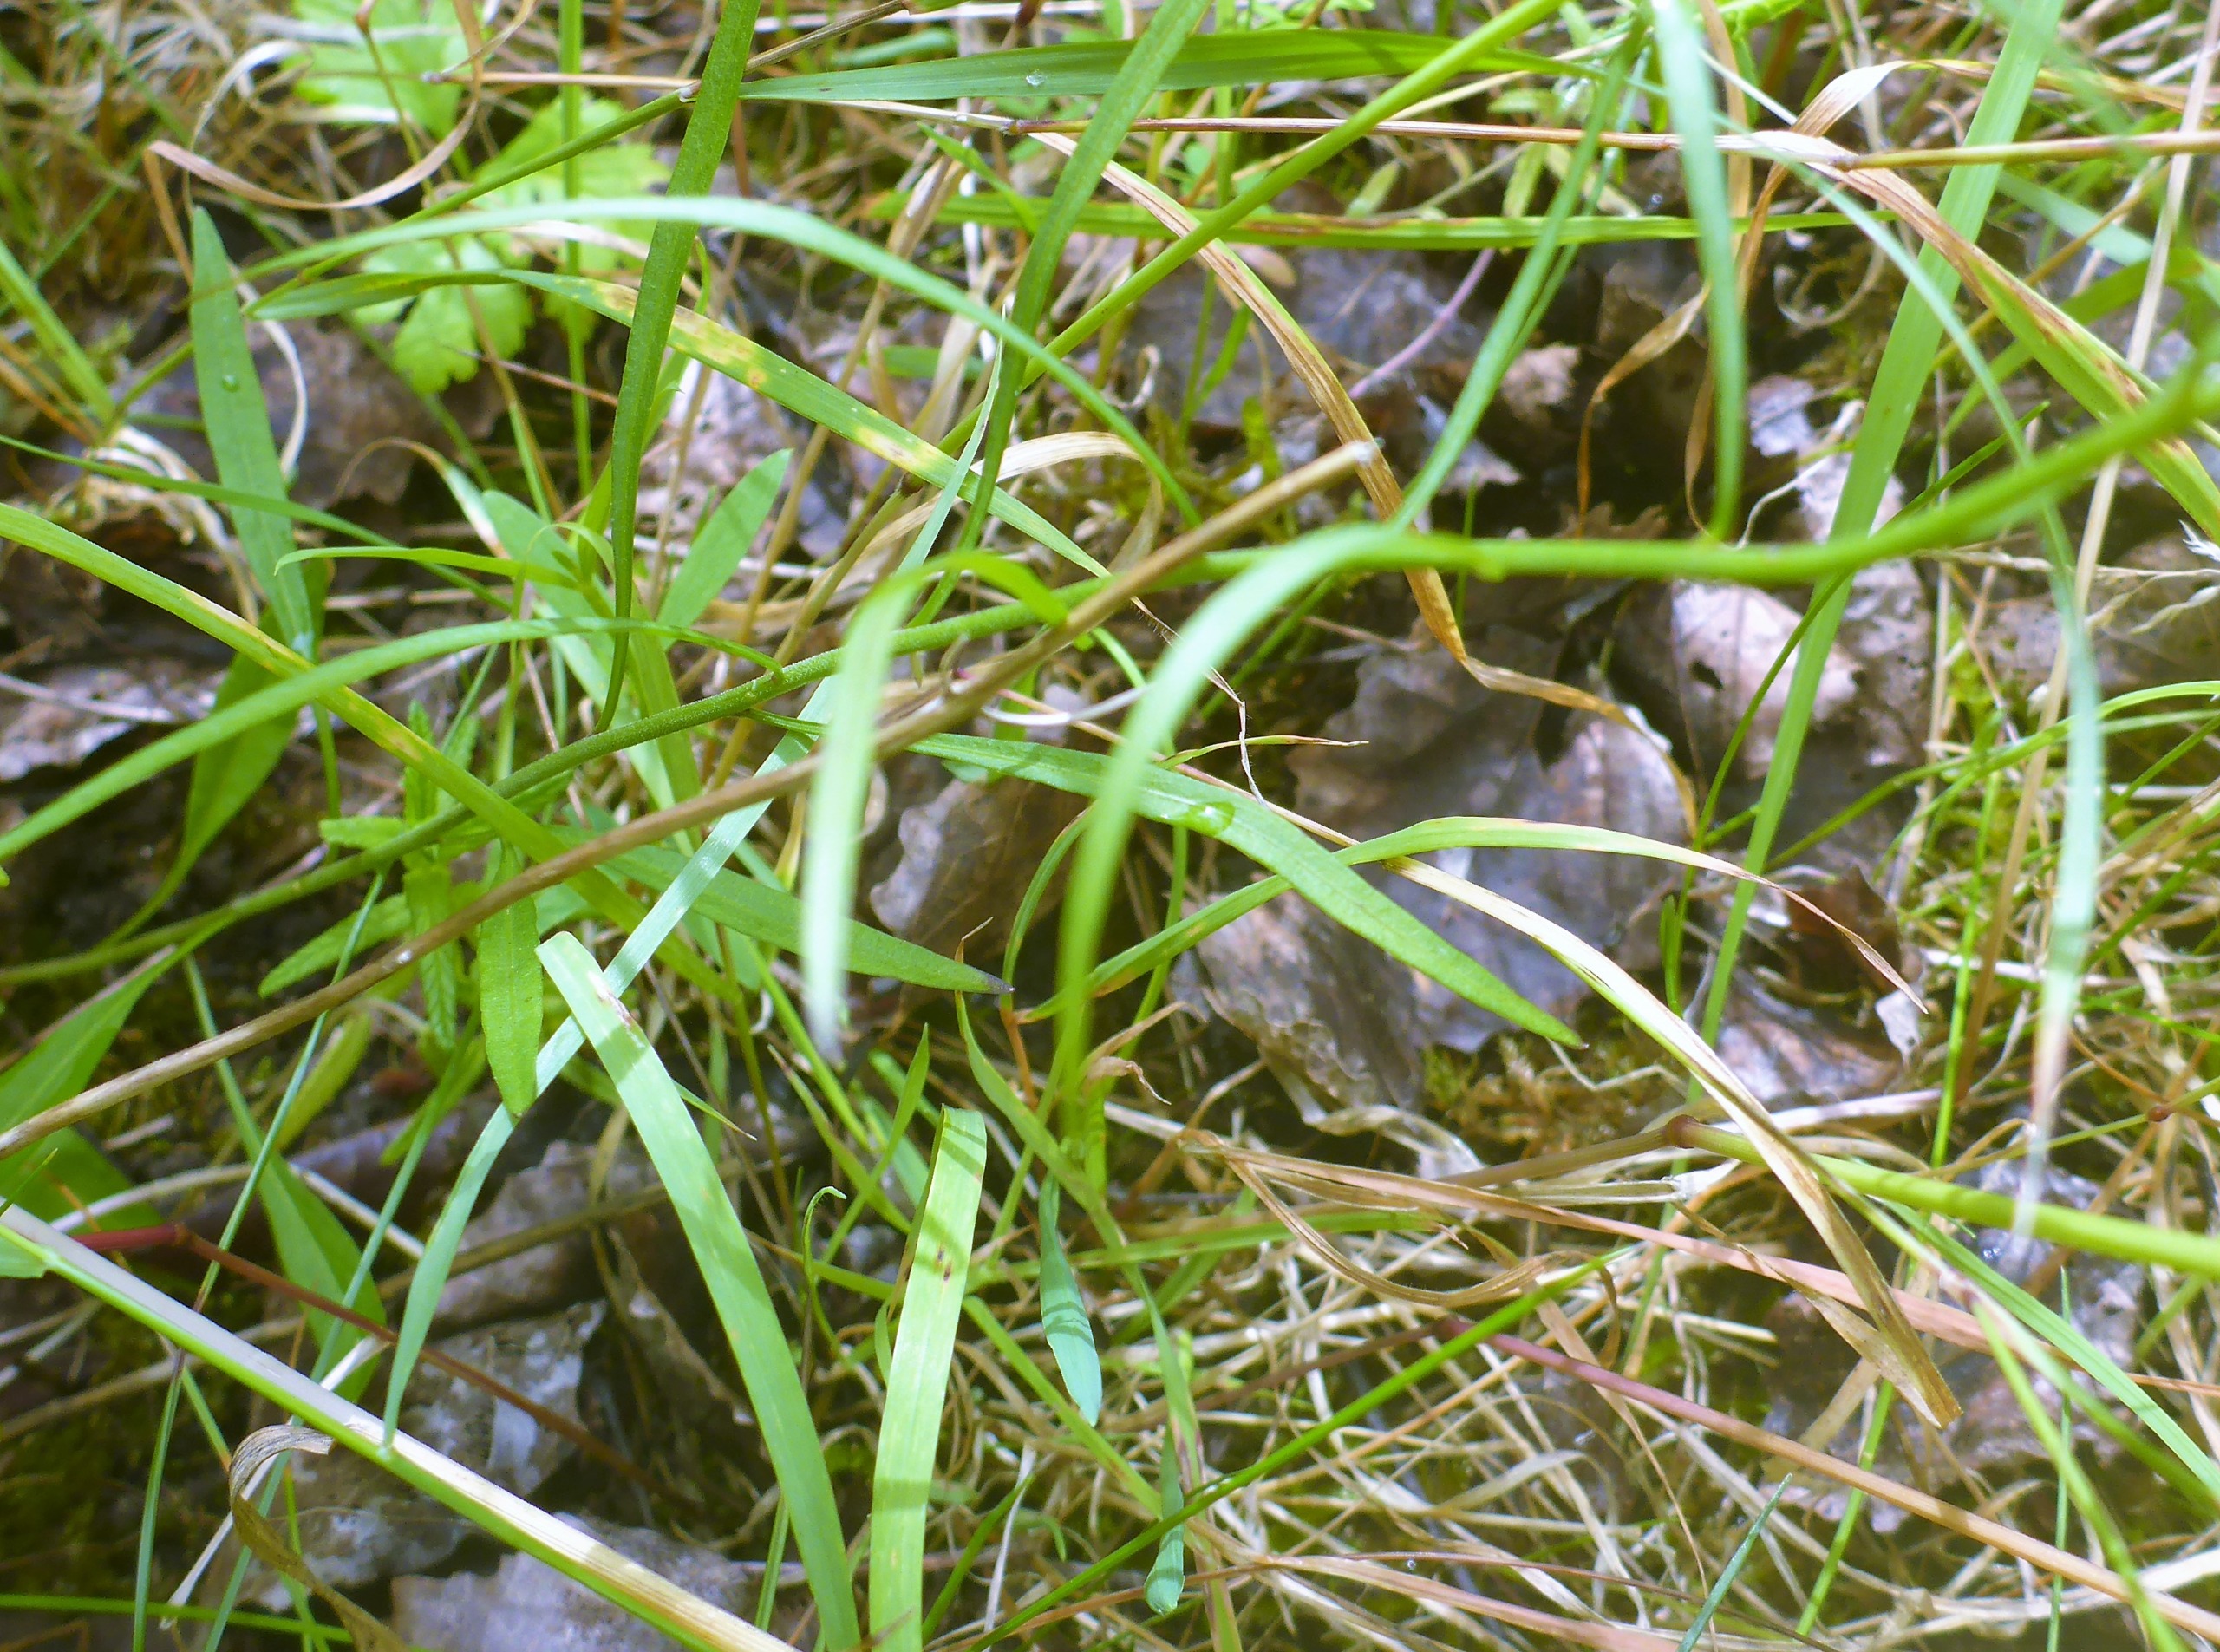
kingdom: Plantae
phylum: Tracheophyta
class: Magnoliopsida
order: Asterales
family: Campanulaceae
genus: Campanula
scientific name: Campanula rotundifolia
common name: Liden klokke
